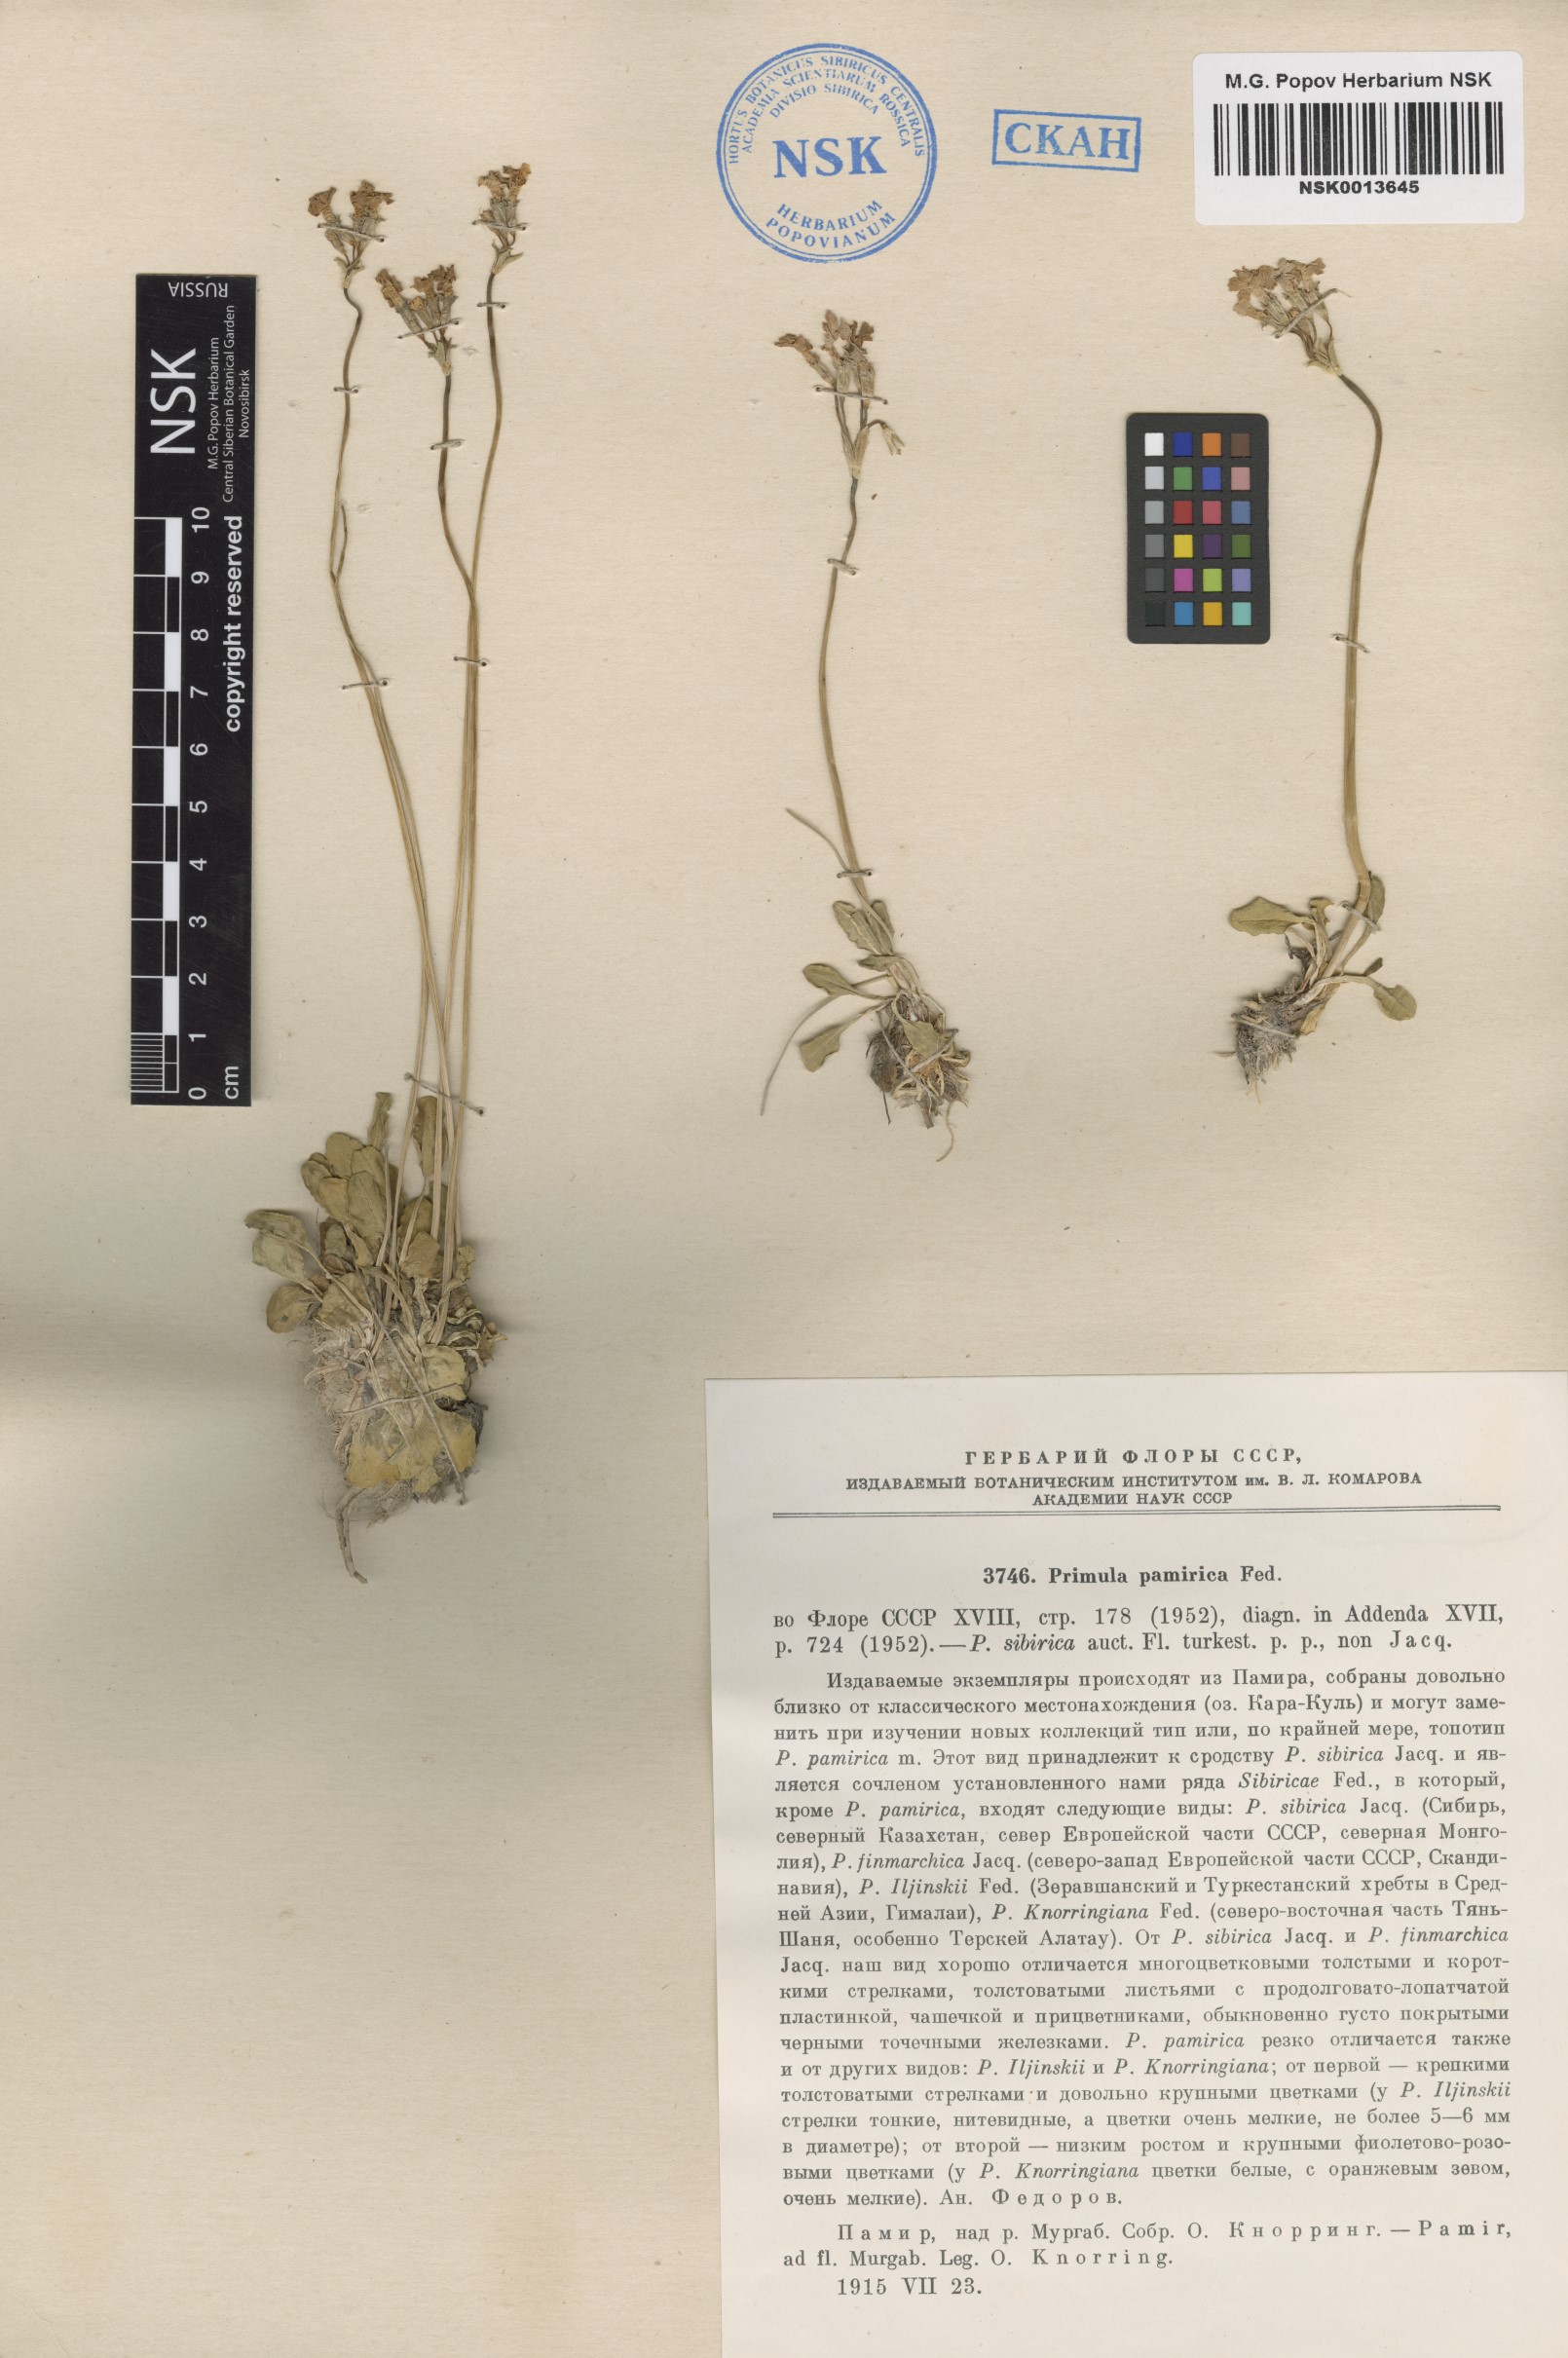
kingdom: Plantae
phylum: Tracheophyta
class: Magnoliopsida
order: Ericales
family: Primulaceae
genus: Primula
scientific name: Primula pamirica
